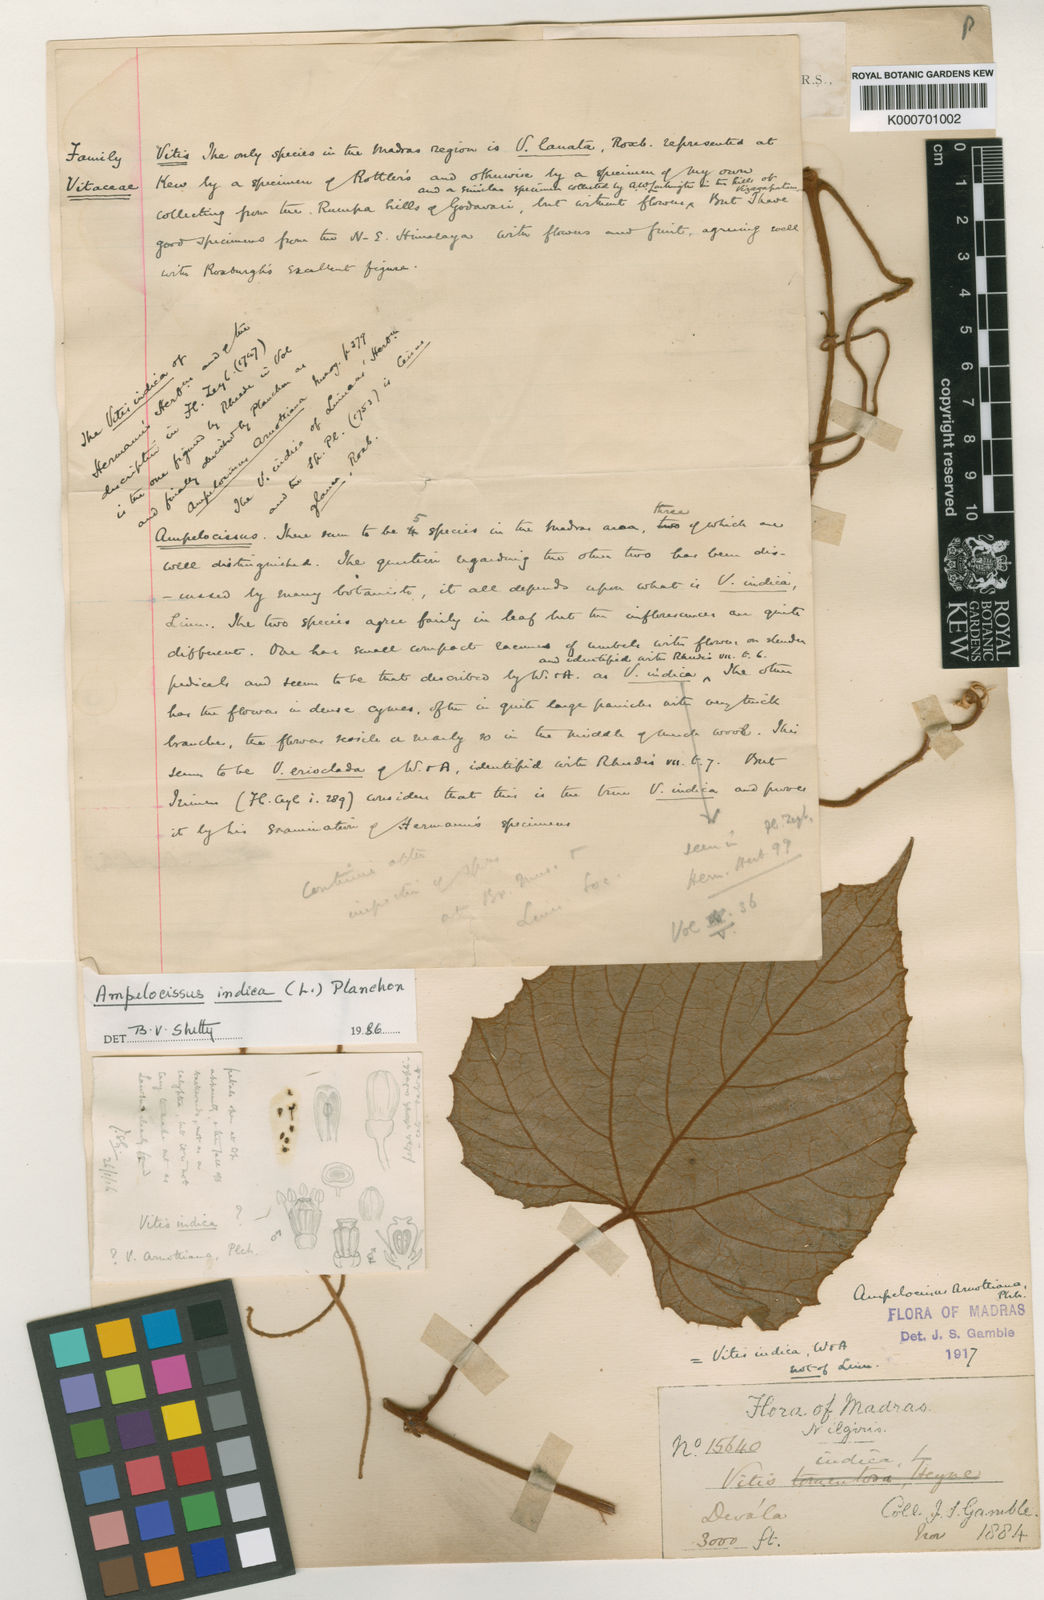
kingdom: Plantae
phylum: Tracheophyta
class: Magnoliopsida
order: Vitales
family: Vitaceae
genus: Ampelocissus
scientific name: Ampelocissus indica
